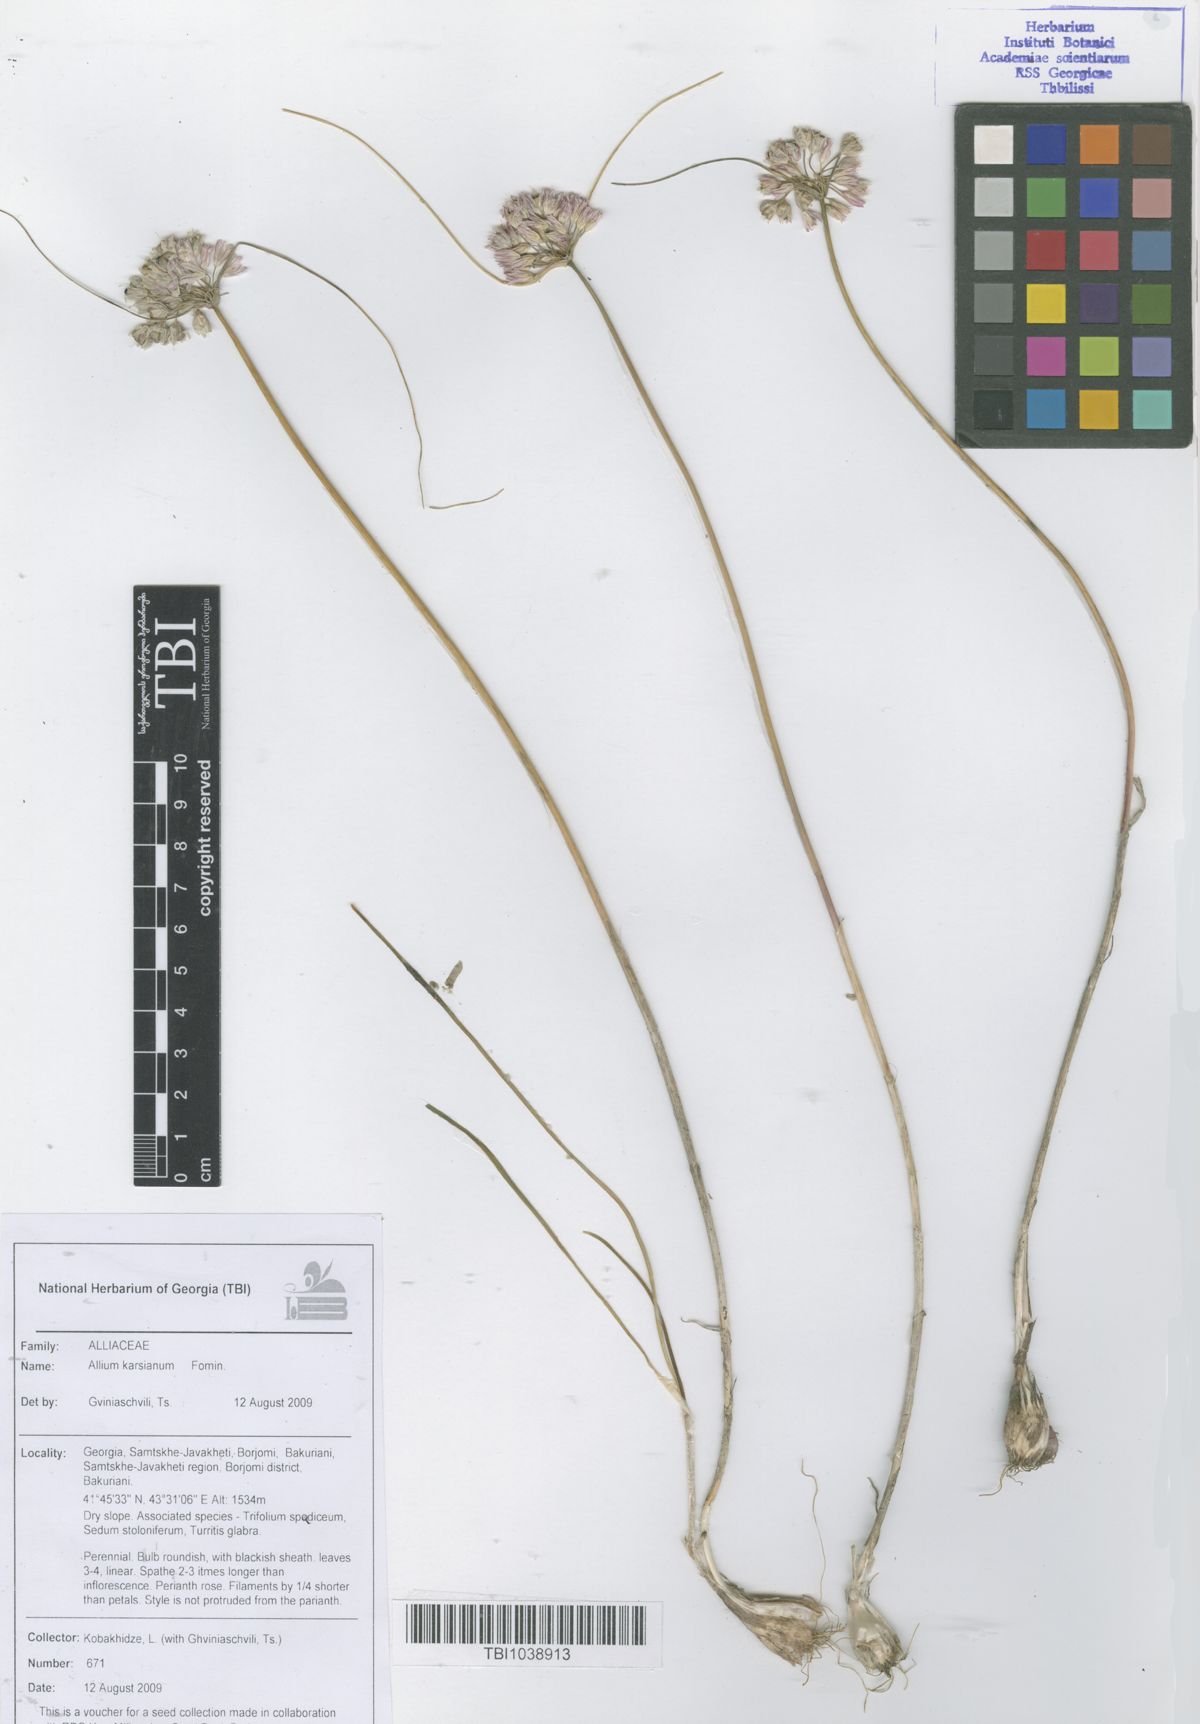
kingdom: Plantae
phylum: Tracheophyta
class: Liliopsida
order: Asparagales
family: Amaryllidaceae
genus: Allium
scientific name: Allium paniculatum
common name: Pale garlic
